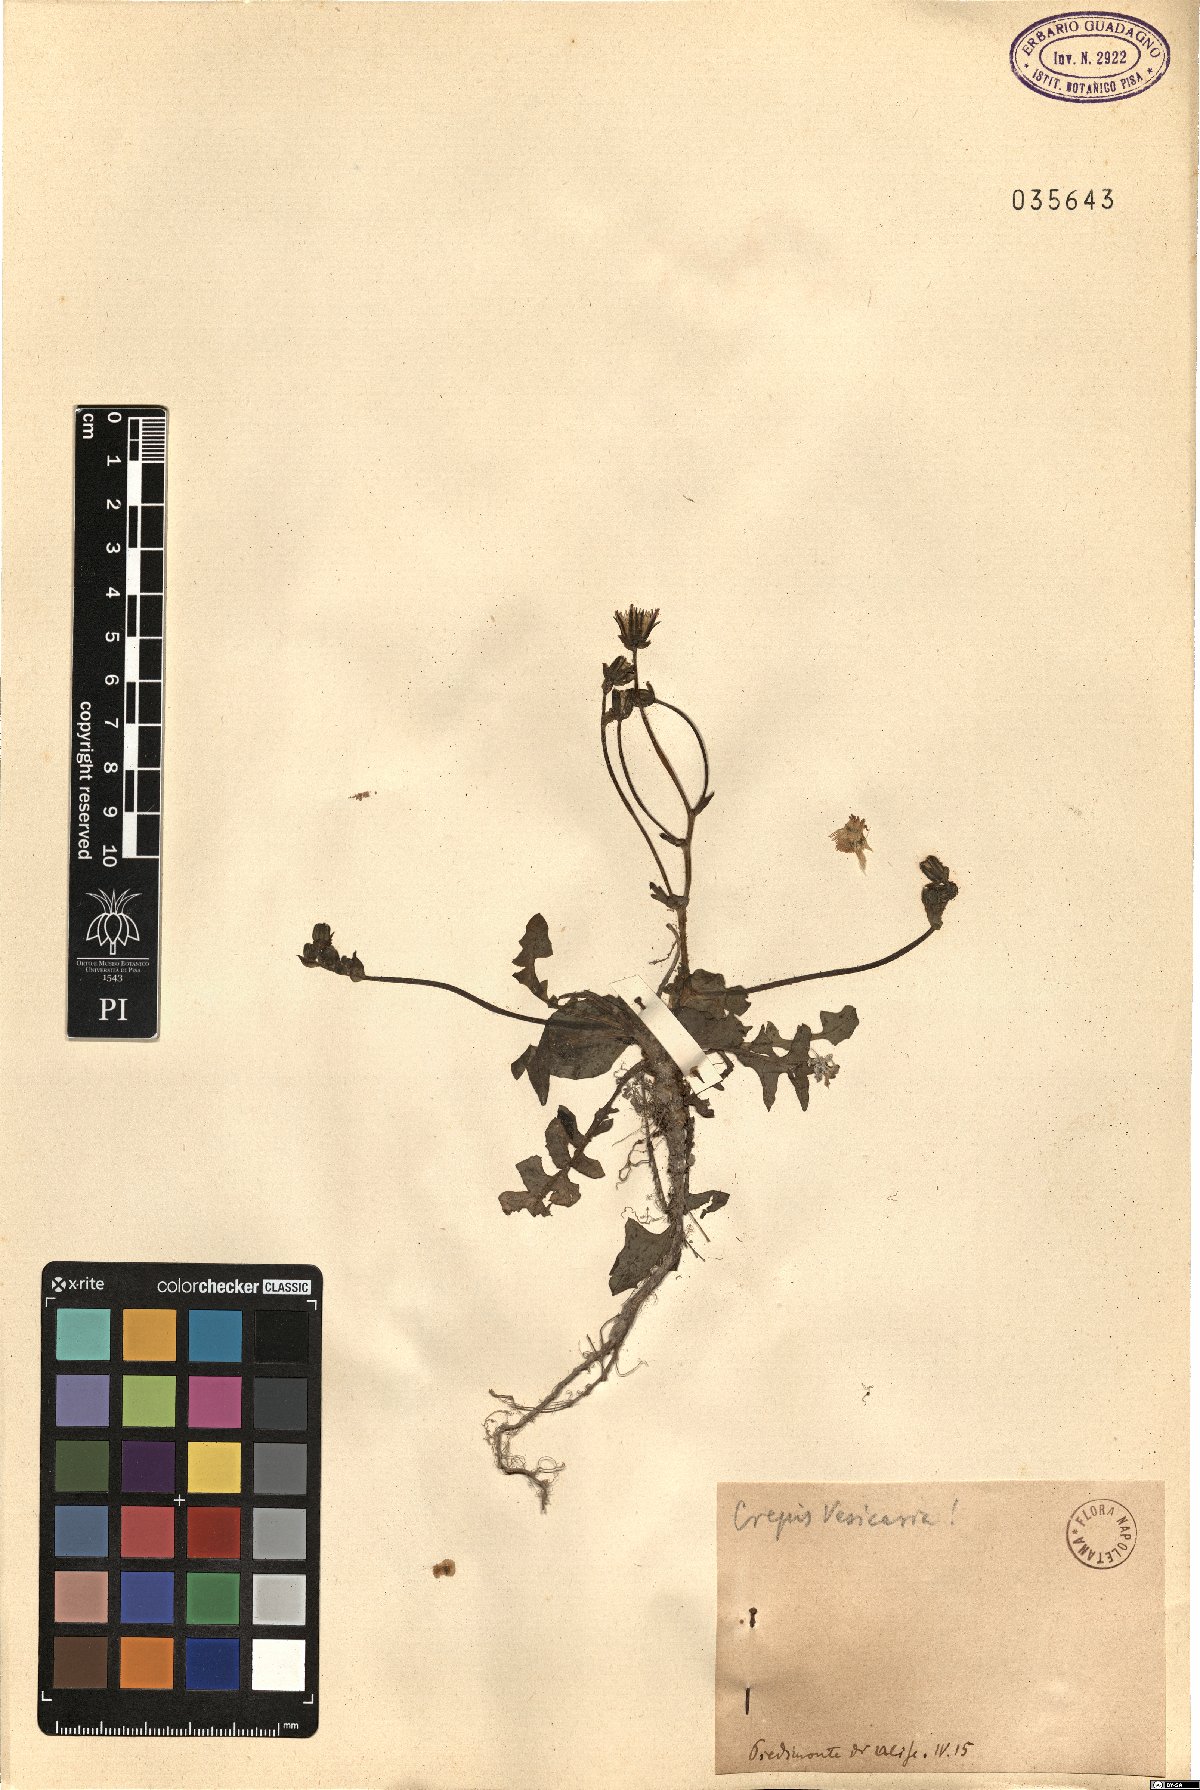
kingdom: Plantae
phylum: Tracheophyta
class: Magnoliopsida
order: Asterales
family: Asteraceae
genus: Crepis
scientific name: Crepis vesicaria
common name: Beaked hawksbeard
